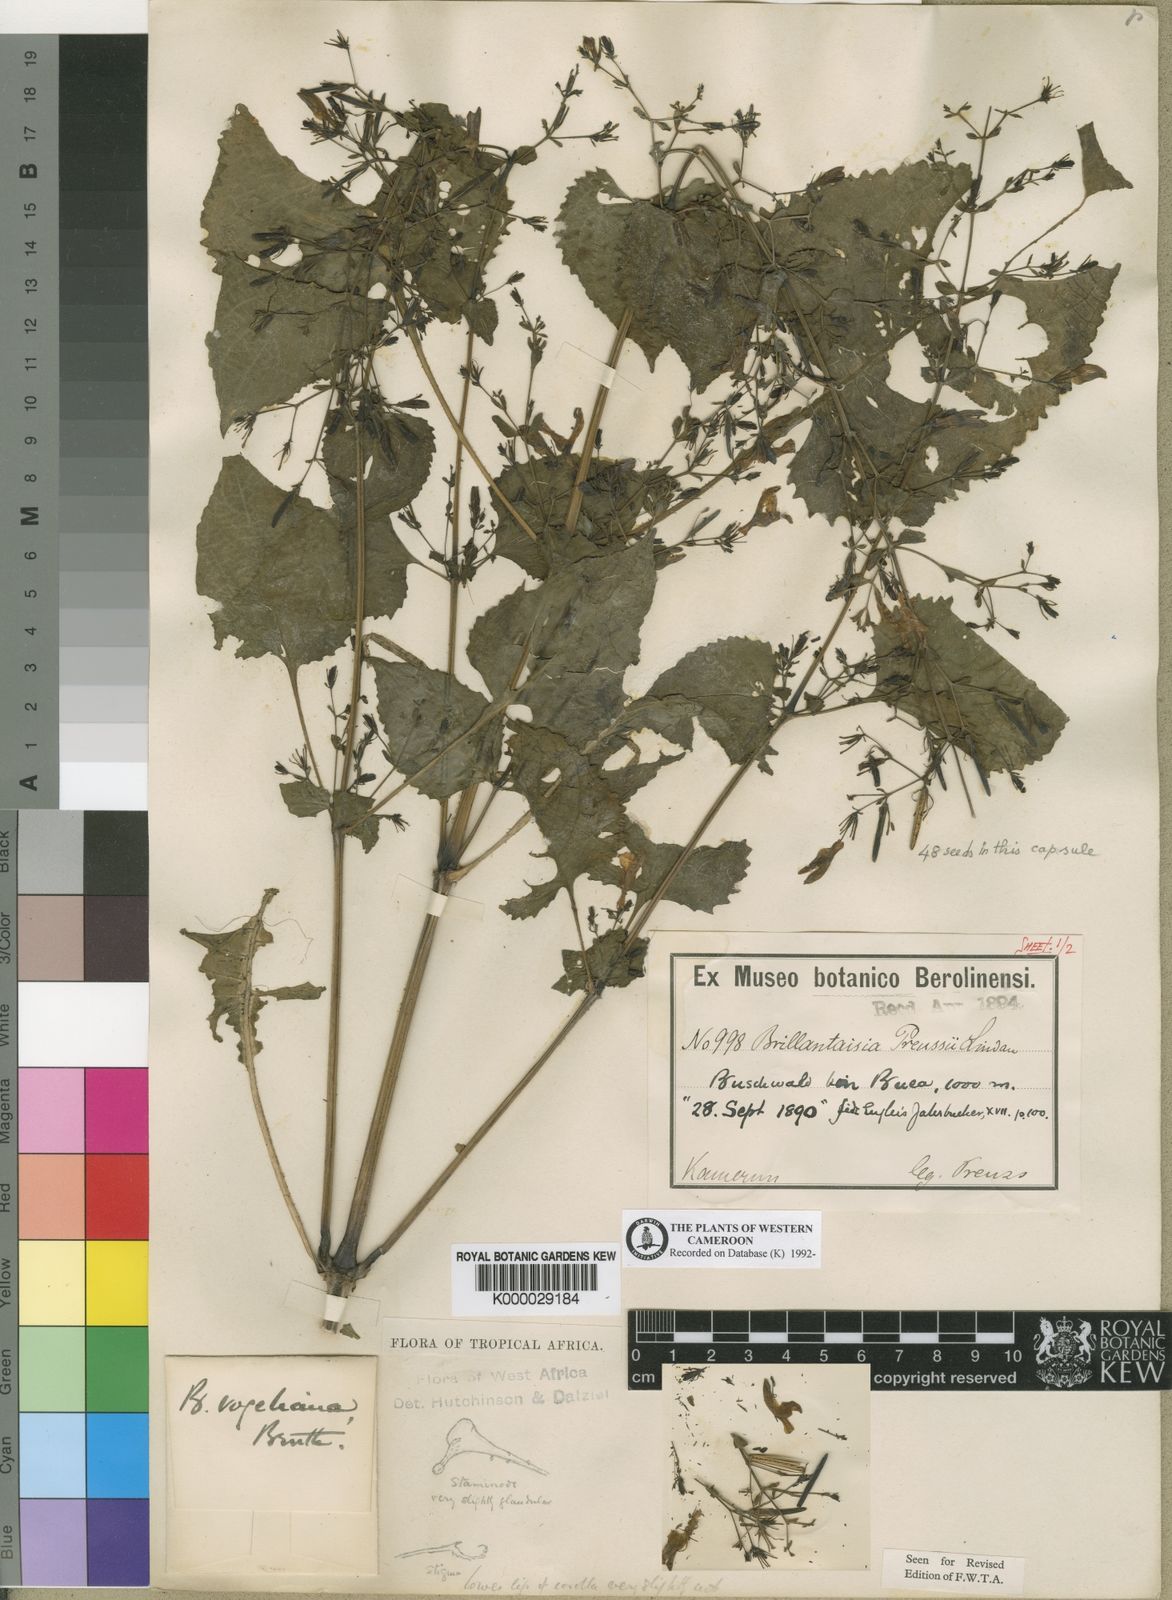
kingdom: Plantae
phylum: Tracheophyta
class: Magnoliopsida
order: Lamiales
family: Acanthaceae
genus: Brillantaisia
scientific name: Brillantaisia vogeliana
